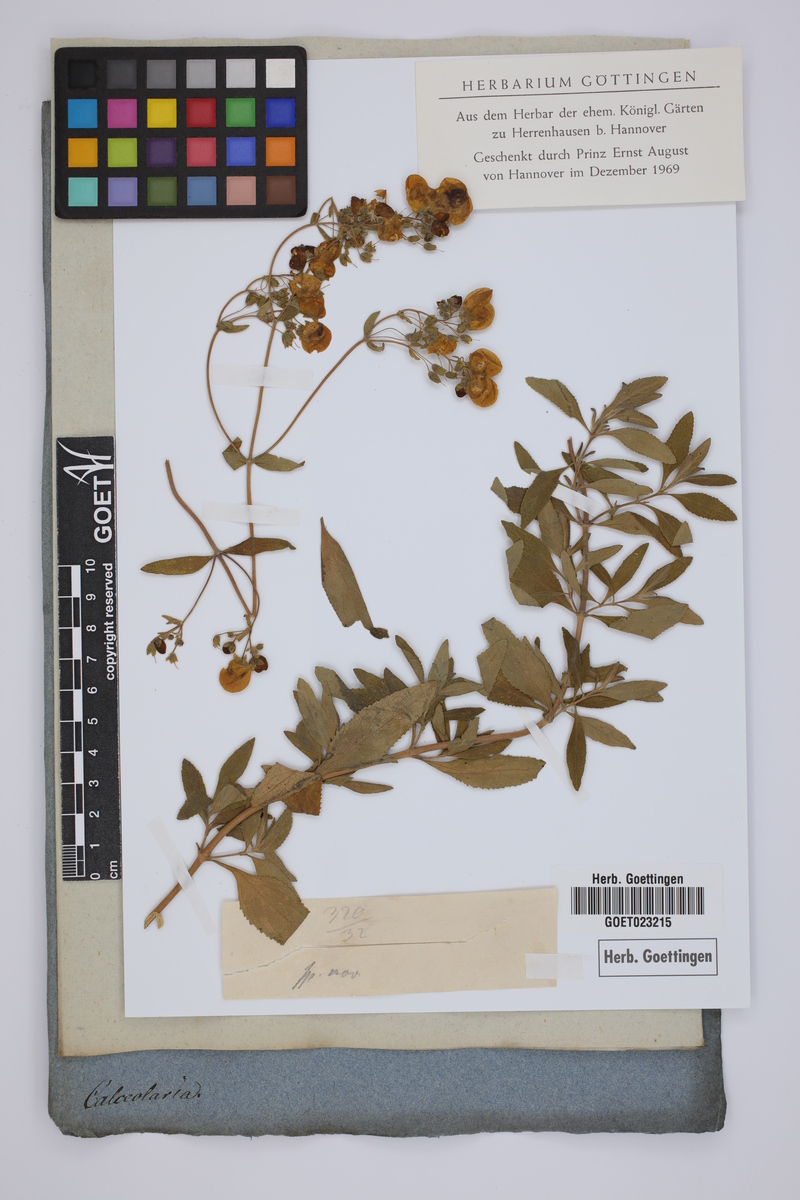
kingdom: Plantae
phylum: Tracheophyta
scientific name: Tracheophyta
